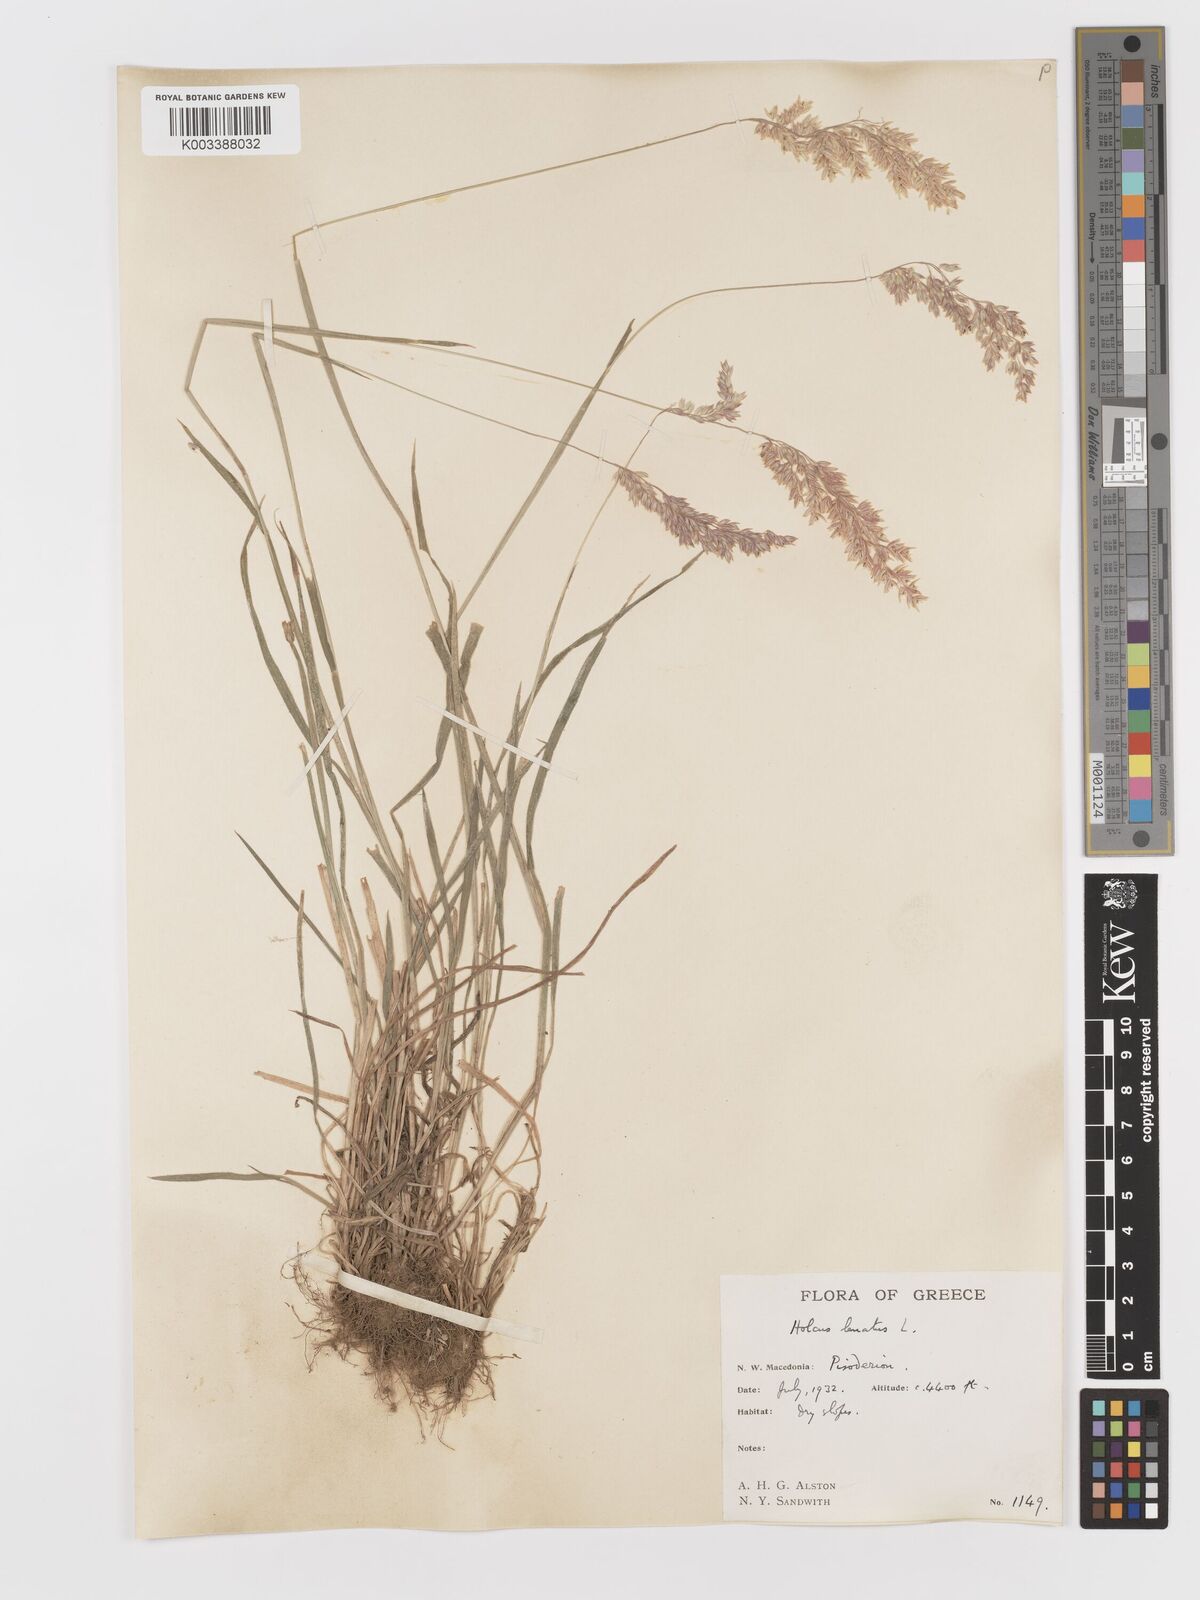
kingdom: Plantae
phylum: Tracheophyta
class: Liliopsida
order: Poales
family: Poaceae
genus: Holcus
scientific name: Holcus lanatus
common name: Yorkshire-fog
